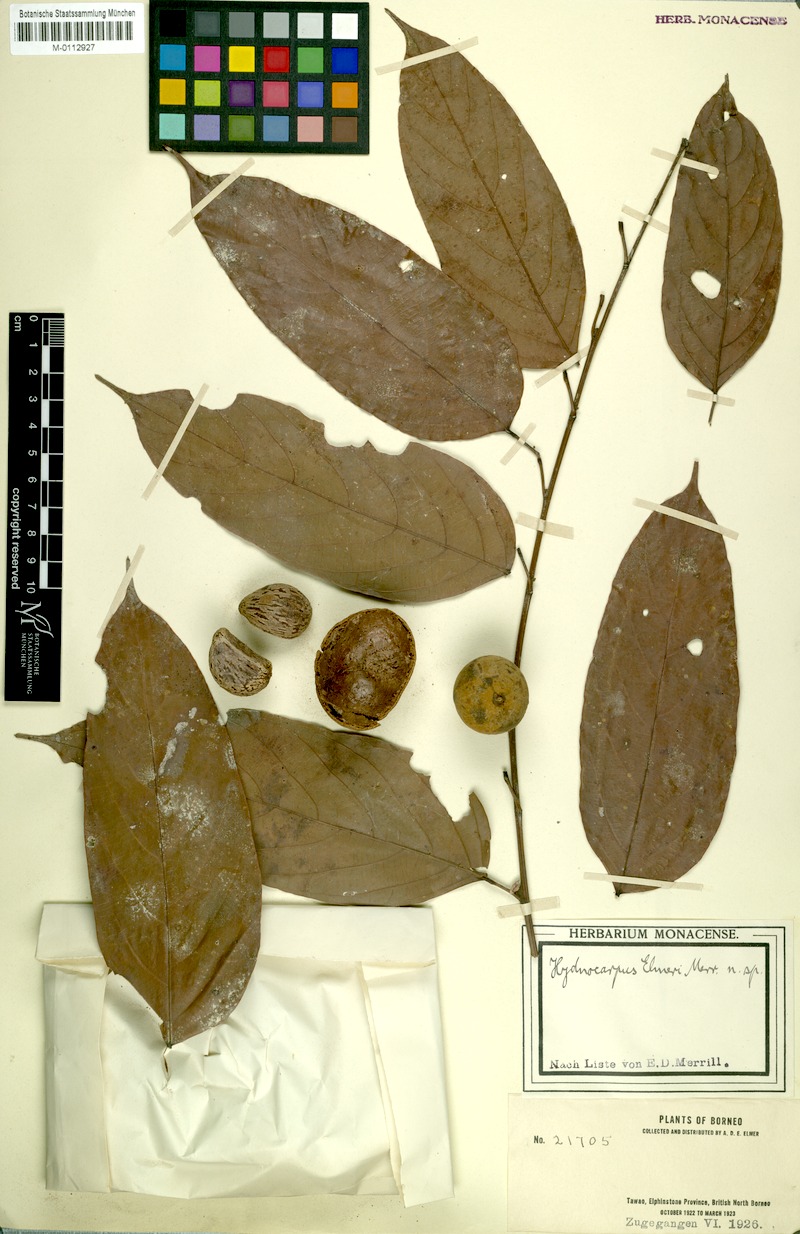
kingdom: Plantae
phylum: Tracheophyta
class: Magnoliopsida
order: Malpighiales
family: Achariaceae
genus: Hydnocarpus
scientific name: Hydnocarpus elmeri
